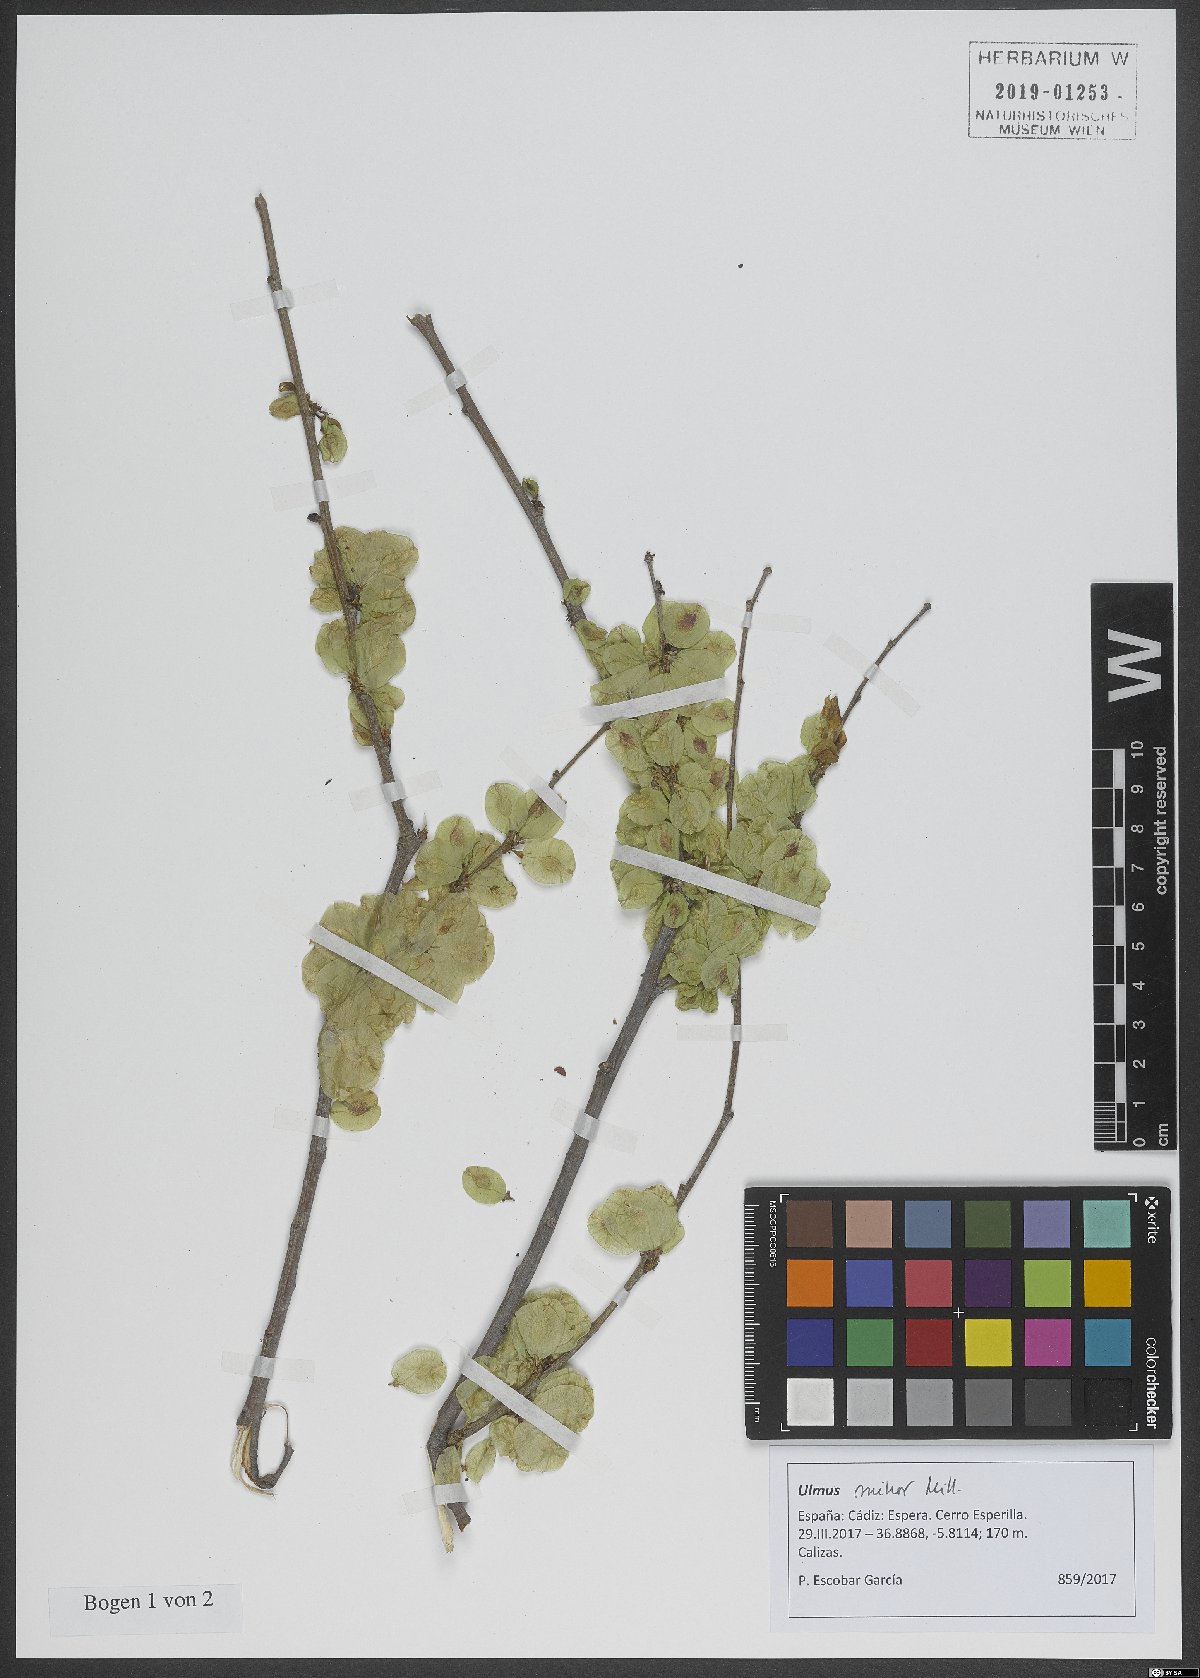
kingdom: Plantae
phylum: Tracheophyta
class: Magnoliopsida
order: Rosales
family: Ulmaceae
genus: Ulmus
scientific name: Ulmus minor
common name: Small-leaved elm
